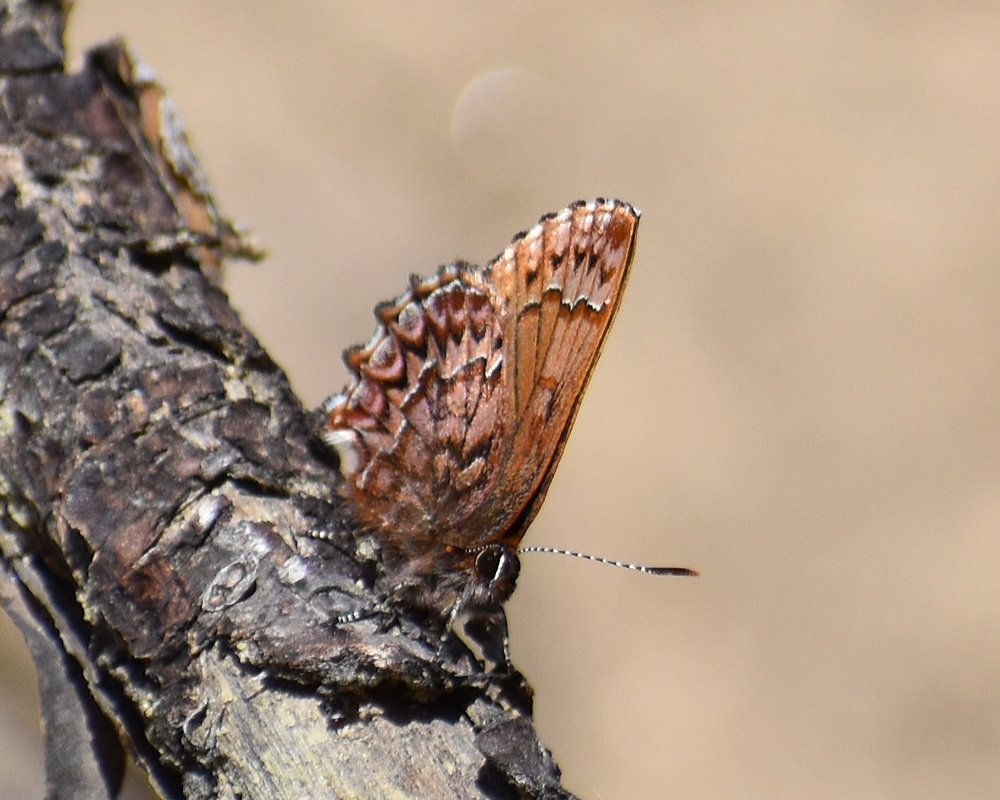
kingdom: Animalia
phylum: Arthropoda
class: Insecta
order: Lepidoptera
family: Lycaenidae
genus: Incisalia
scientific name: Incisalia eryphon
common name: Western Pine Elfin
